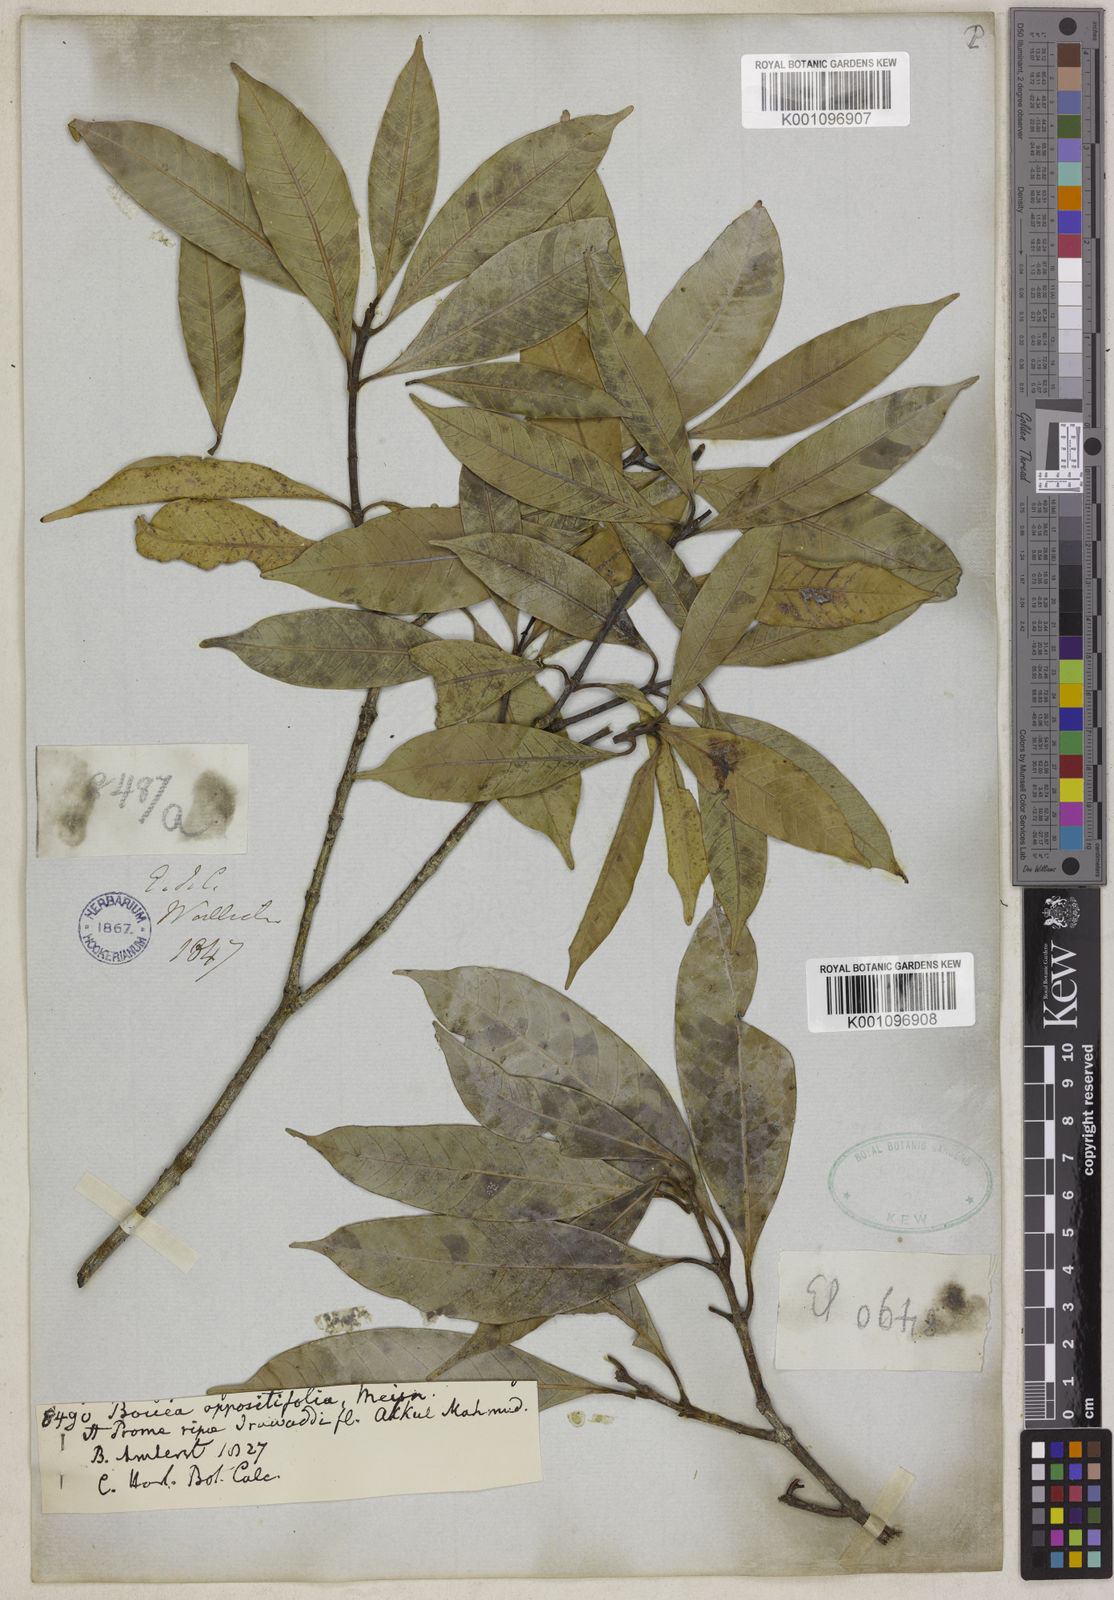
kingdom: Plantae
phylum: Tracheophyta
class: Magnoliopsida
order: Sapindales
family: Anacardiaceae
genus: Bouea
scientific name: Bouea oppositifolia
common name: Narrow-leaved kundang
